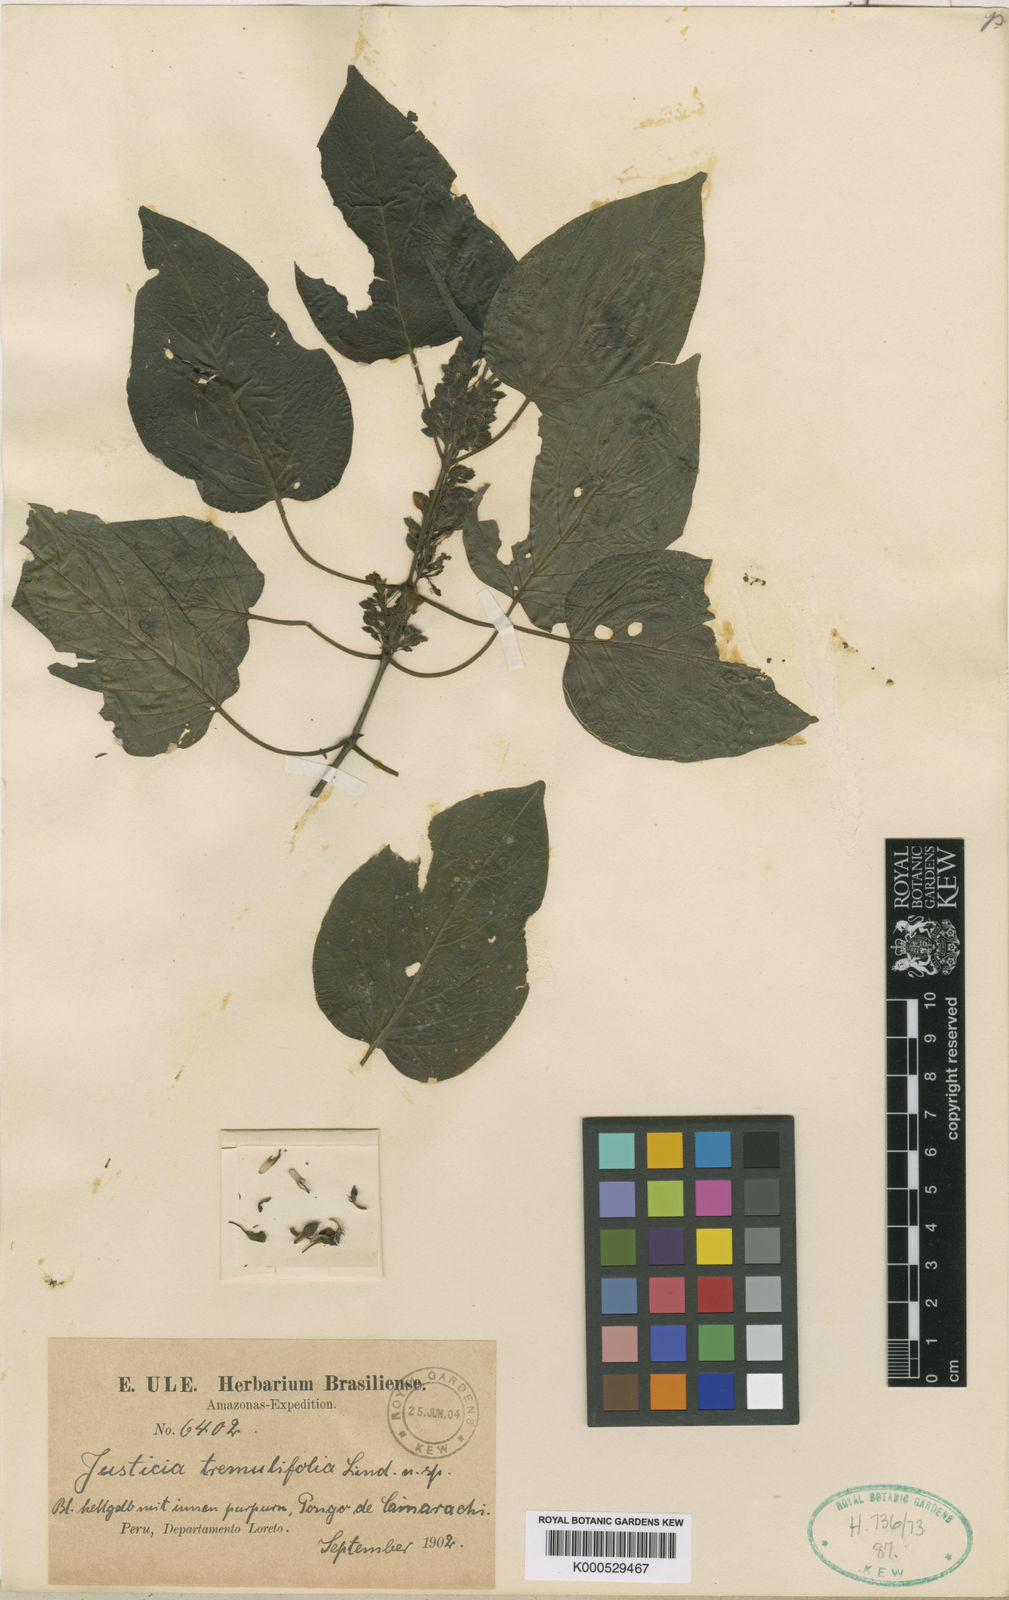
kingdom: Plantae
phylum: Tracheophyta
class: Magnoliopsida
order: Lamiales
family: Acanthaceae
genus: Justicia
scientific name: Justicia tremulifolia
